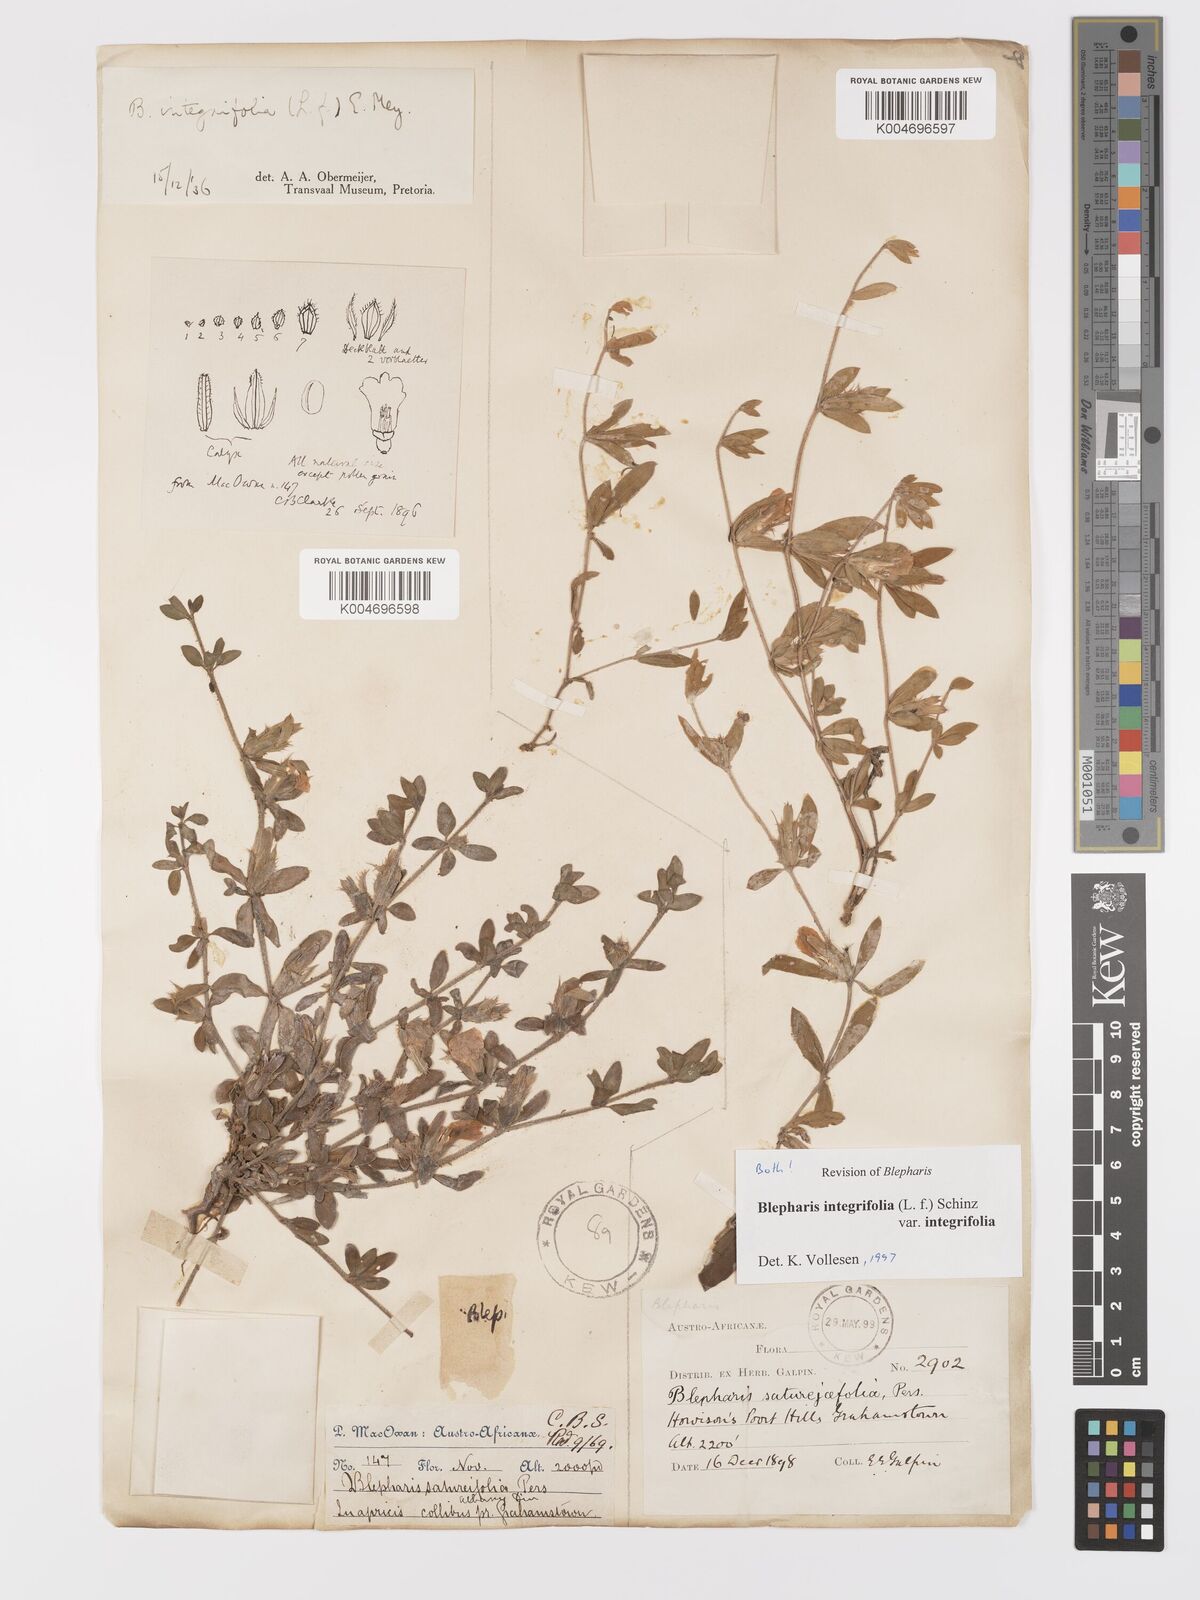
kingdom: Plantae
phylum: Tracheophyta
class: Magnoliopsida
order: Lamiales
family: Acanthaceae
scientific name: Acanthaceae
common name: Acanthaceae
